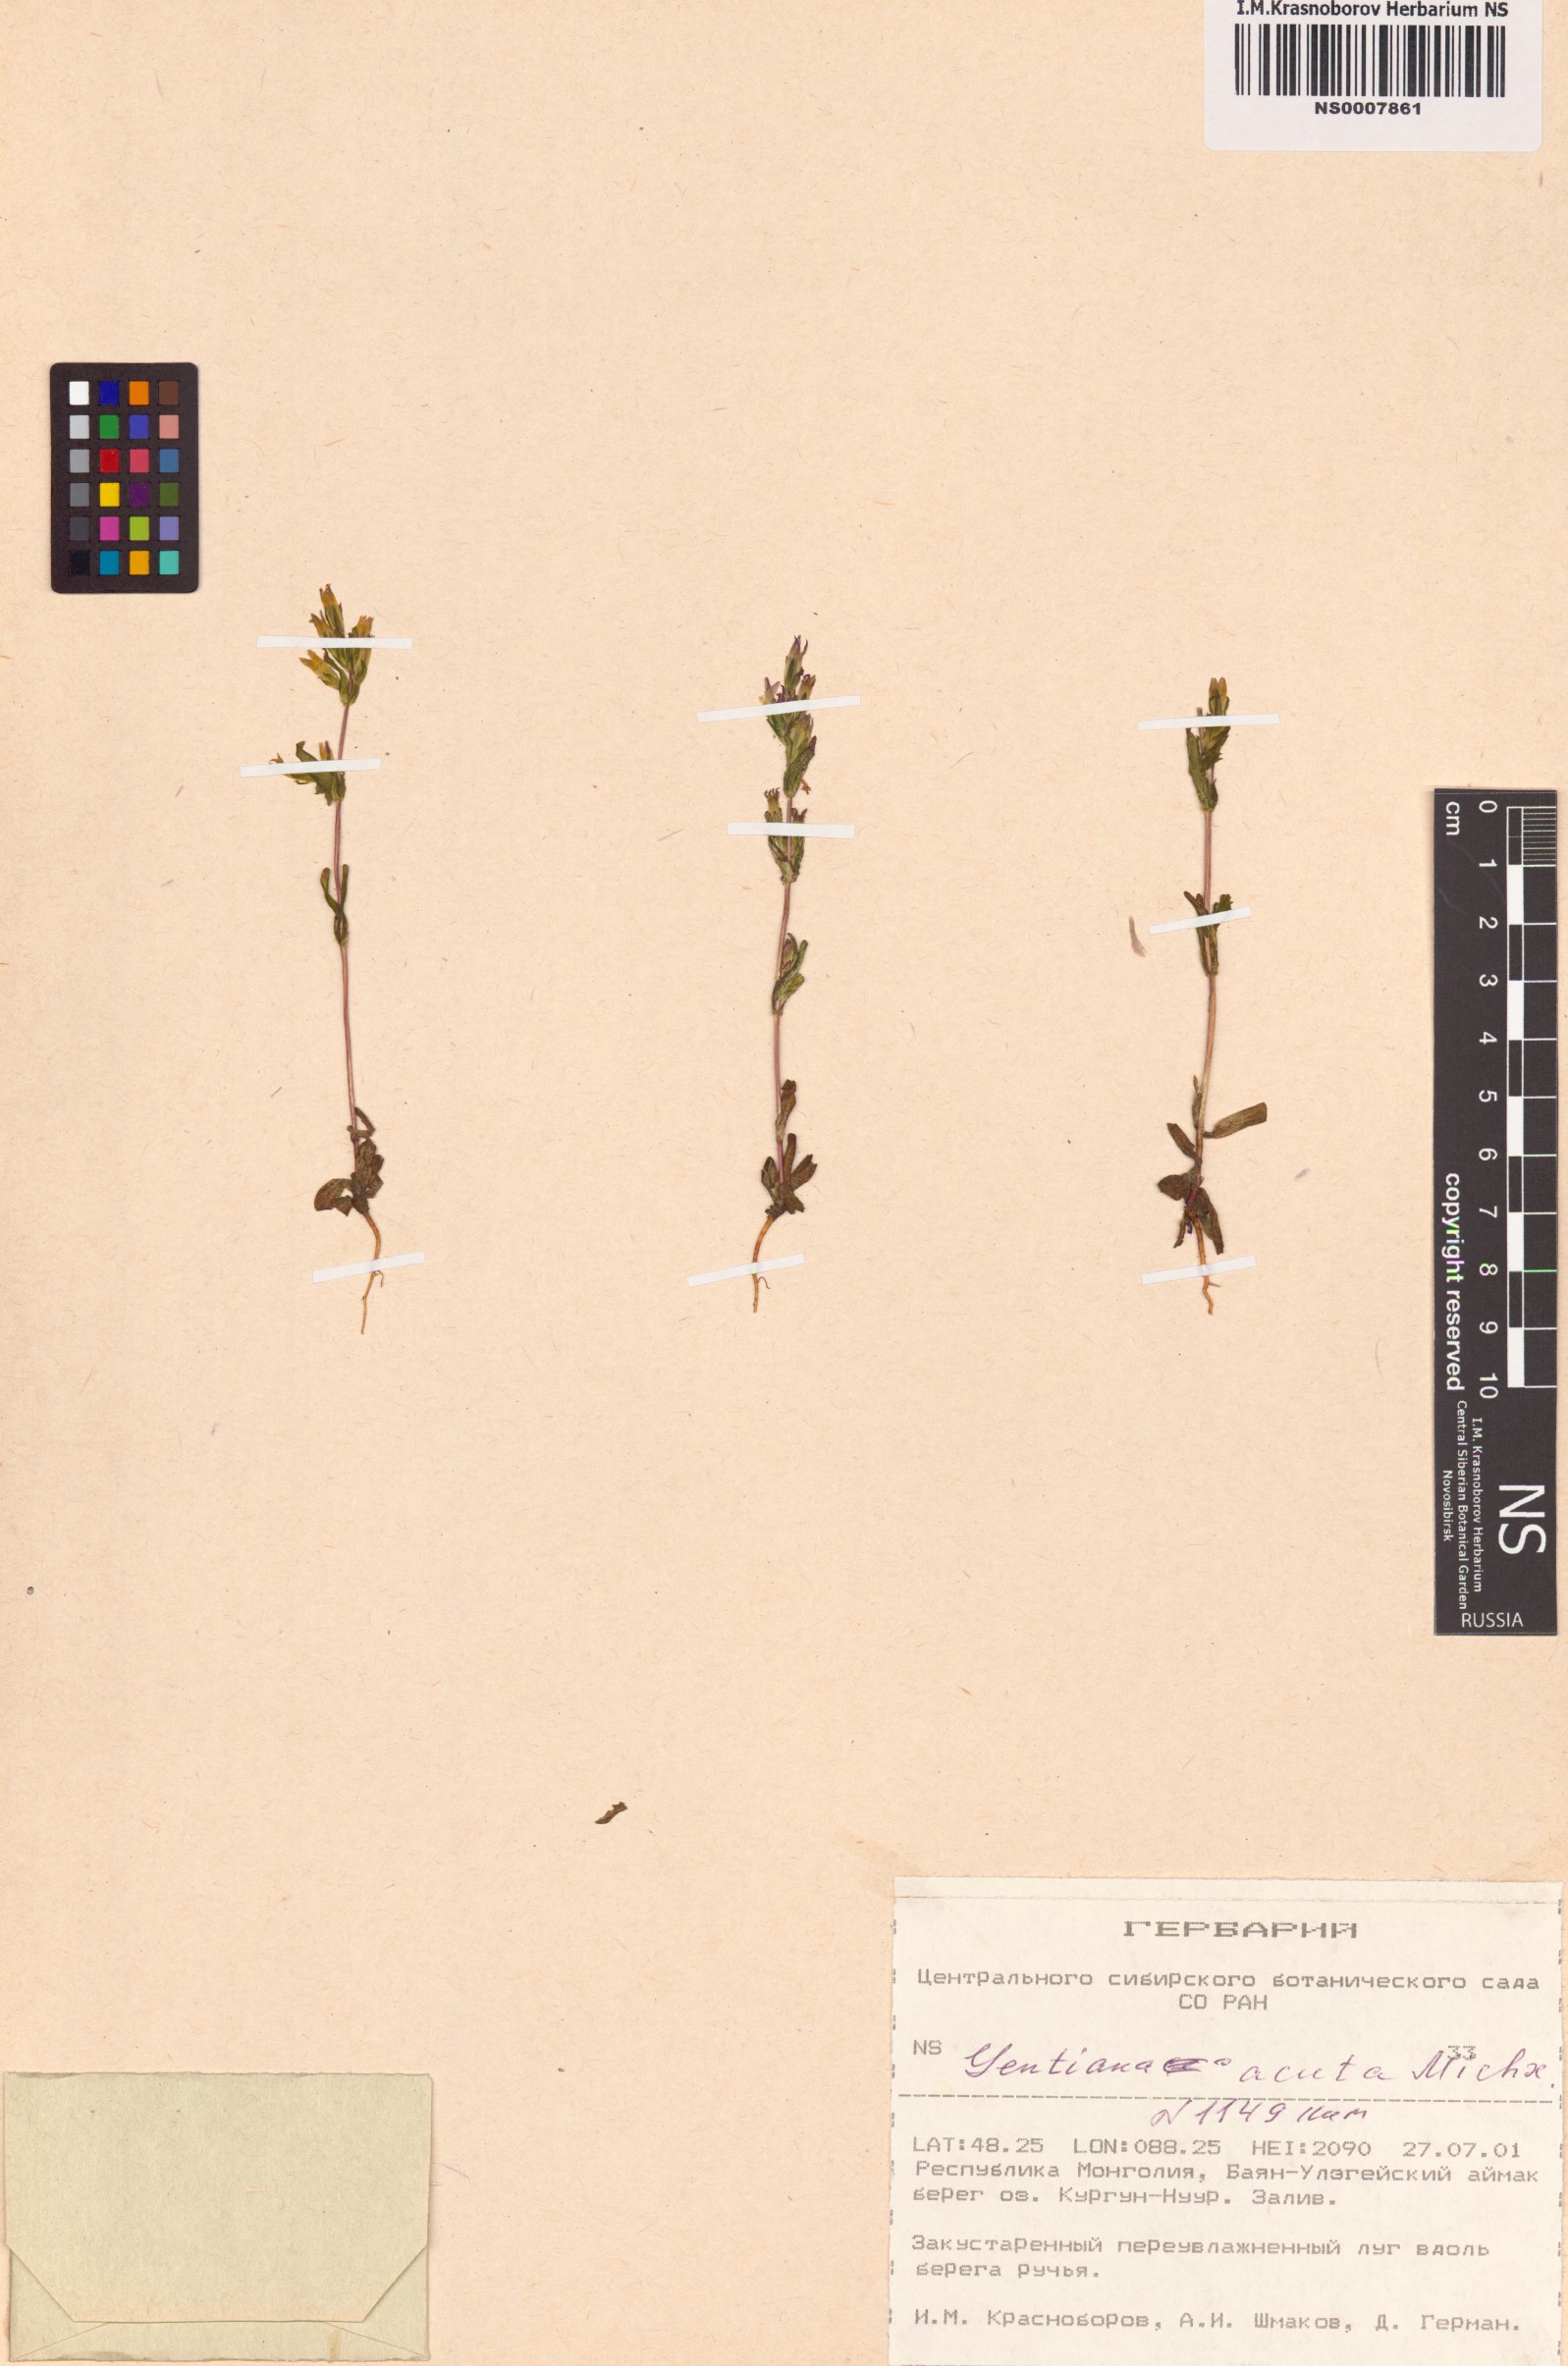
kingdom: Plantae
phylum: Tracheophyta
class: Magnoliopsida
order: Gentianales
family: Gentianaceae
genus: Gentianella
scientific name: Gentianella amarella
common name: Autumn gentian
